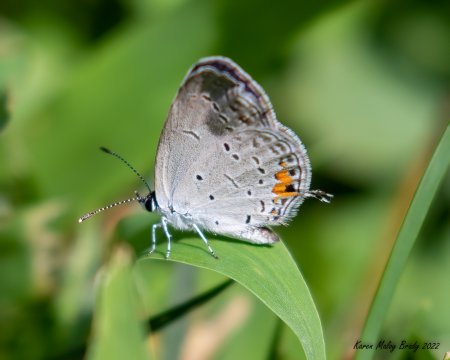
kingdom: Animalia
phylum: Arthropoda
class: Insecta
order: Lepidoptera
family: Lycaenidae
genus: Elkalyce
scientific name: Elkalyce comyntas
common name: Eastern Tailed-Blue
